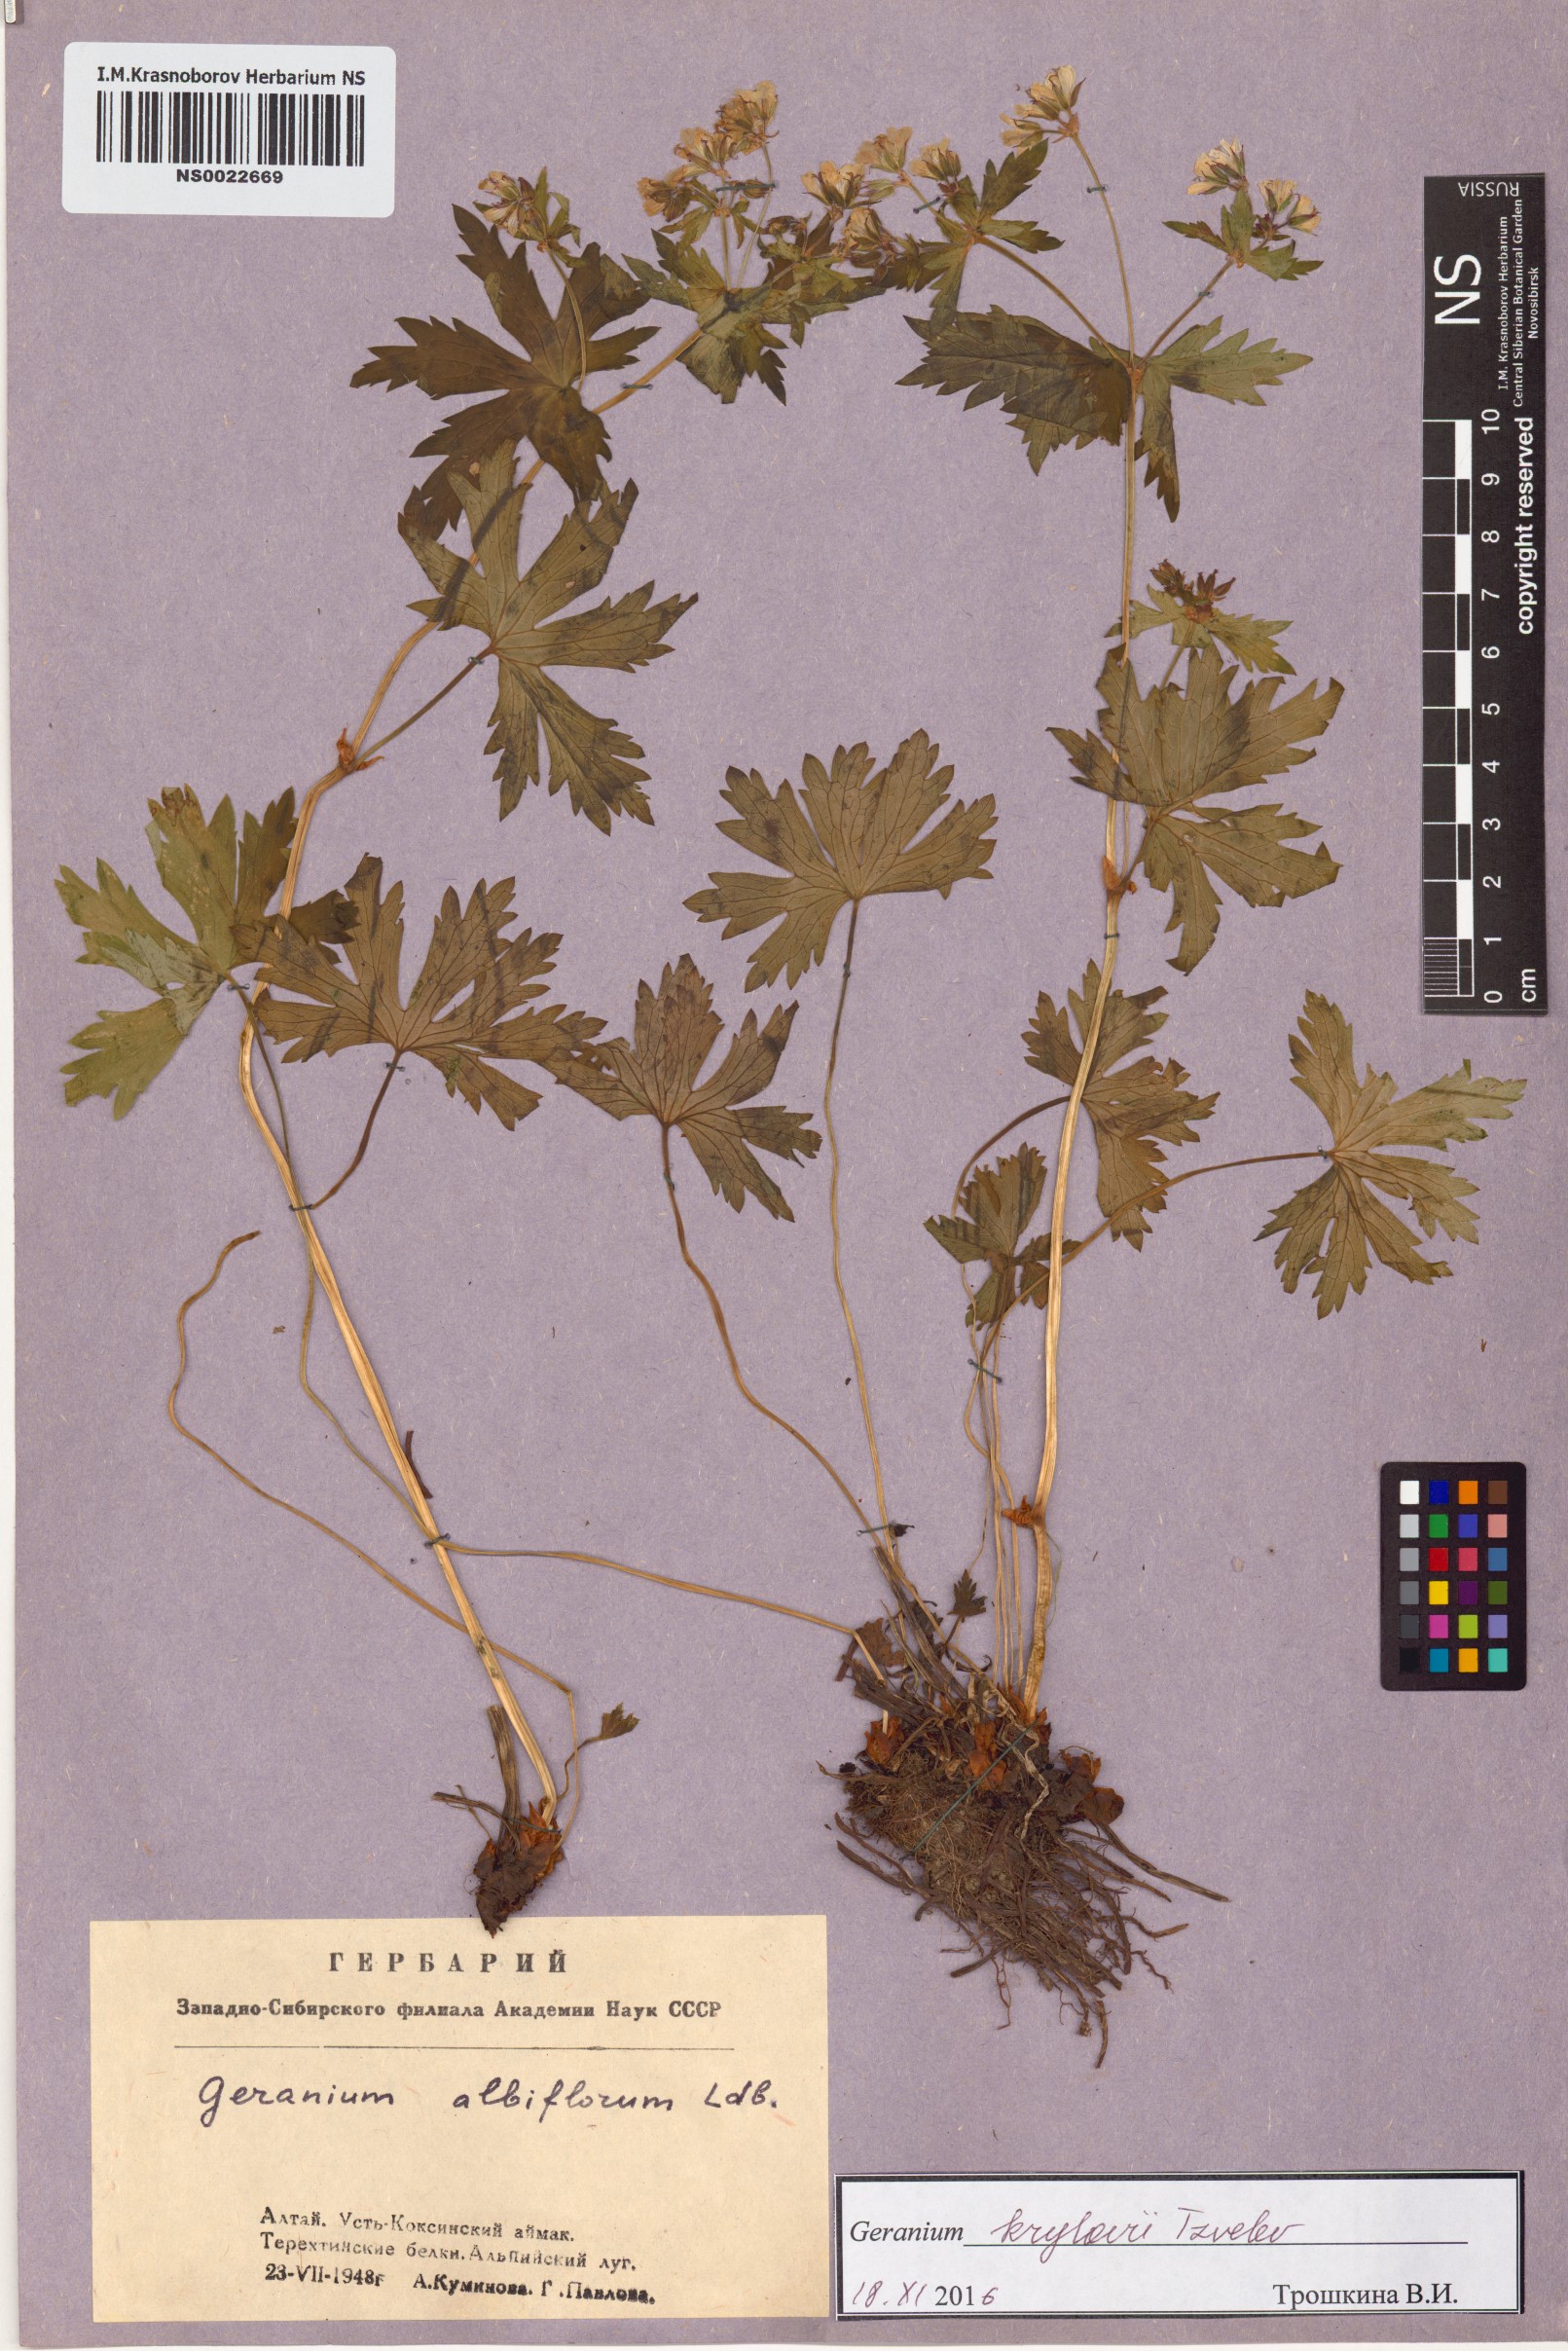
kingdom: Plantae
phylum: Tracheophyta
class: Magnoliopsida
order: Geraniales
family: Geraniaceae
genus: Geranium
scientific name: Geranium sylvaticum
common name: Wood crane's-bill
